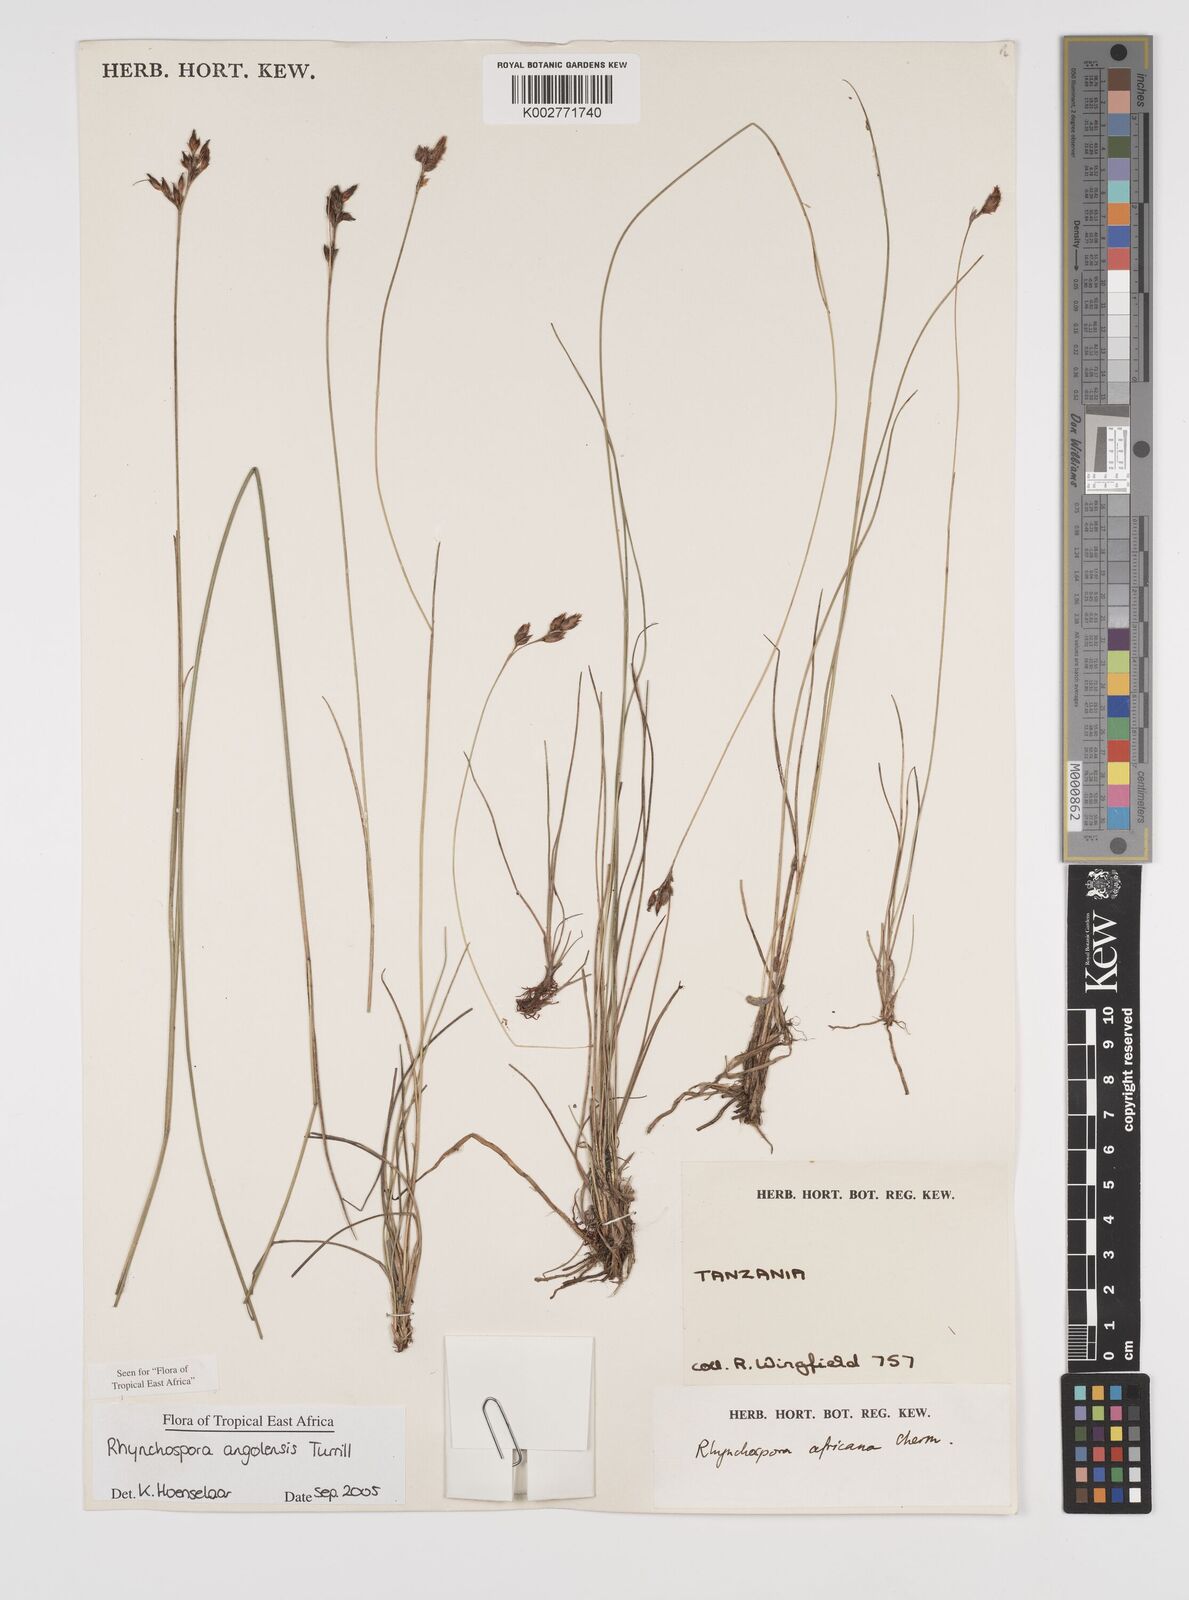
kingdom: Plantae
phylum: Tracheophyta
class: Liliopsida
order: Poales
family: Cyperaceae
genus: Rhynchospora
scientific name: Rhynchospora angolensis
